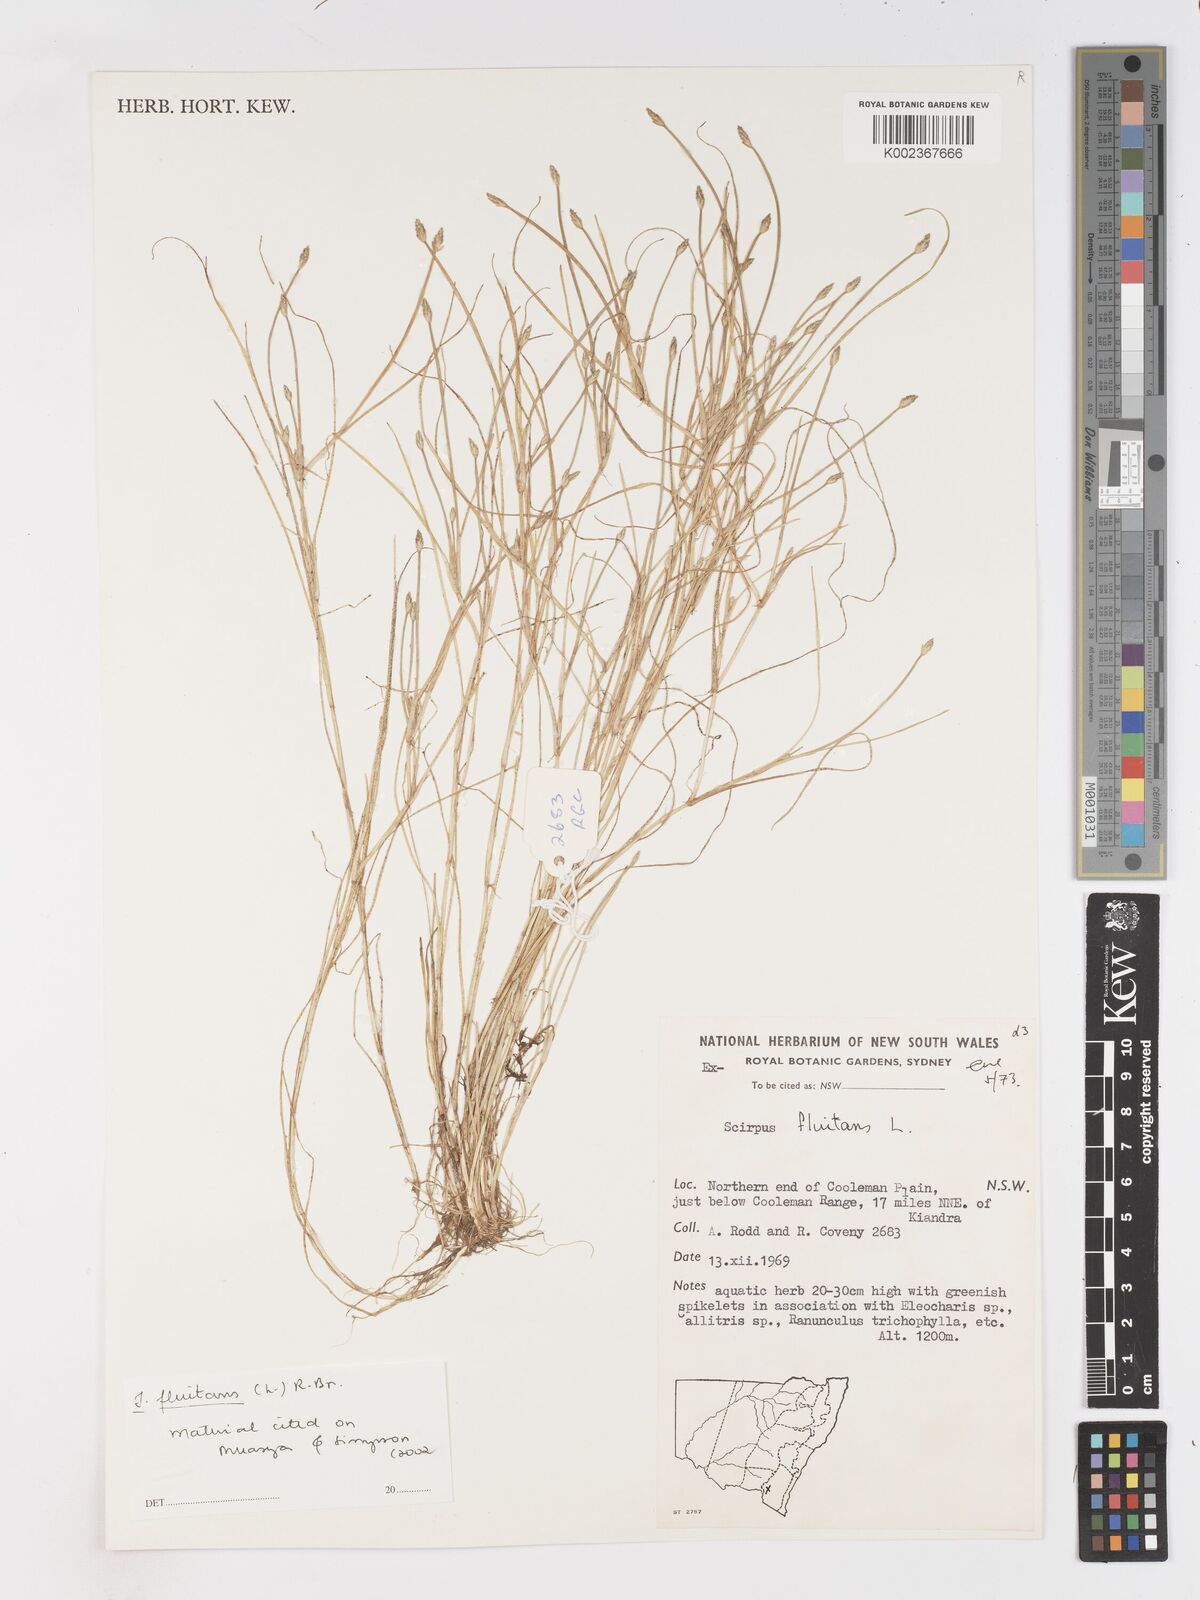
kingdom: Plantae
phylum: Tracheophyta
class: Liliopsida
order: Poales
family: Cyperaceae
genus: Isolepis
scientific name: Isolepis fluitans
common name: Floating club-rush
